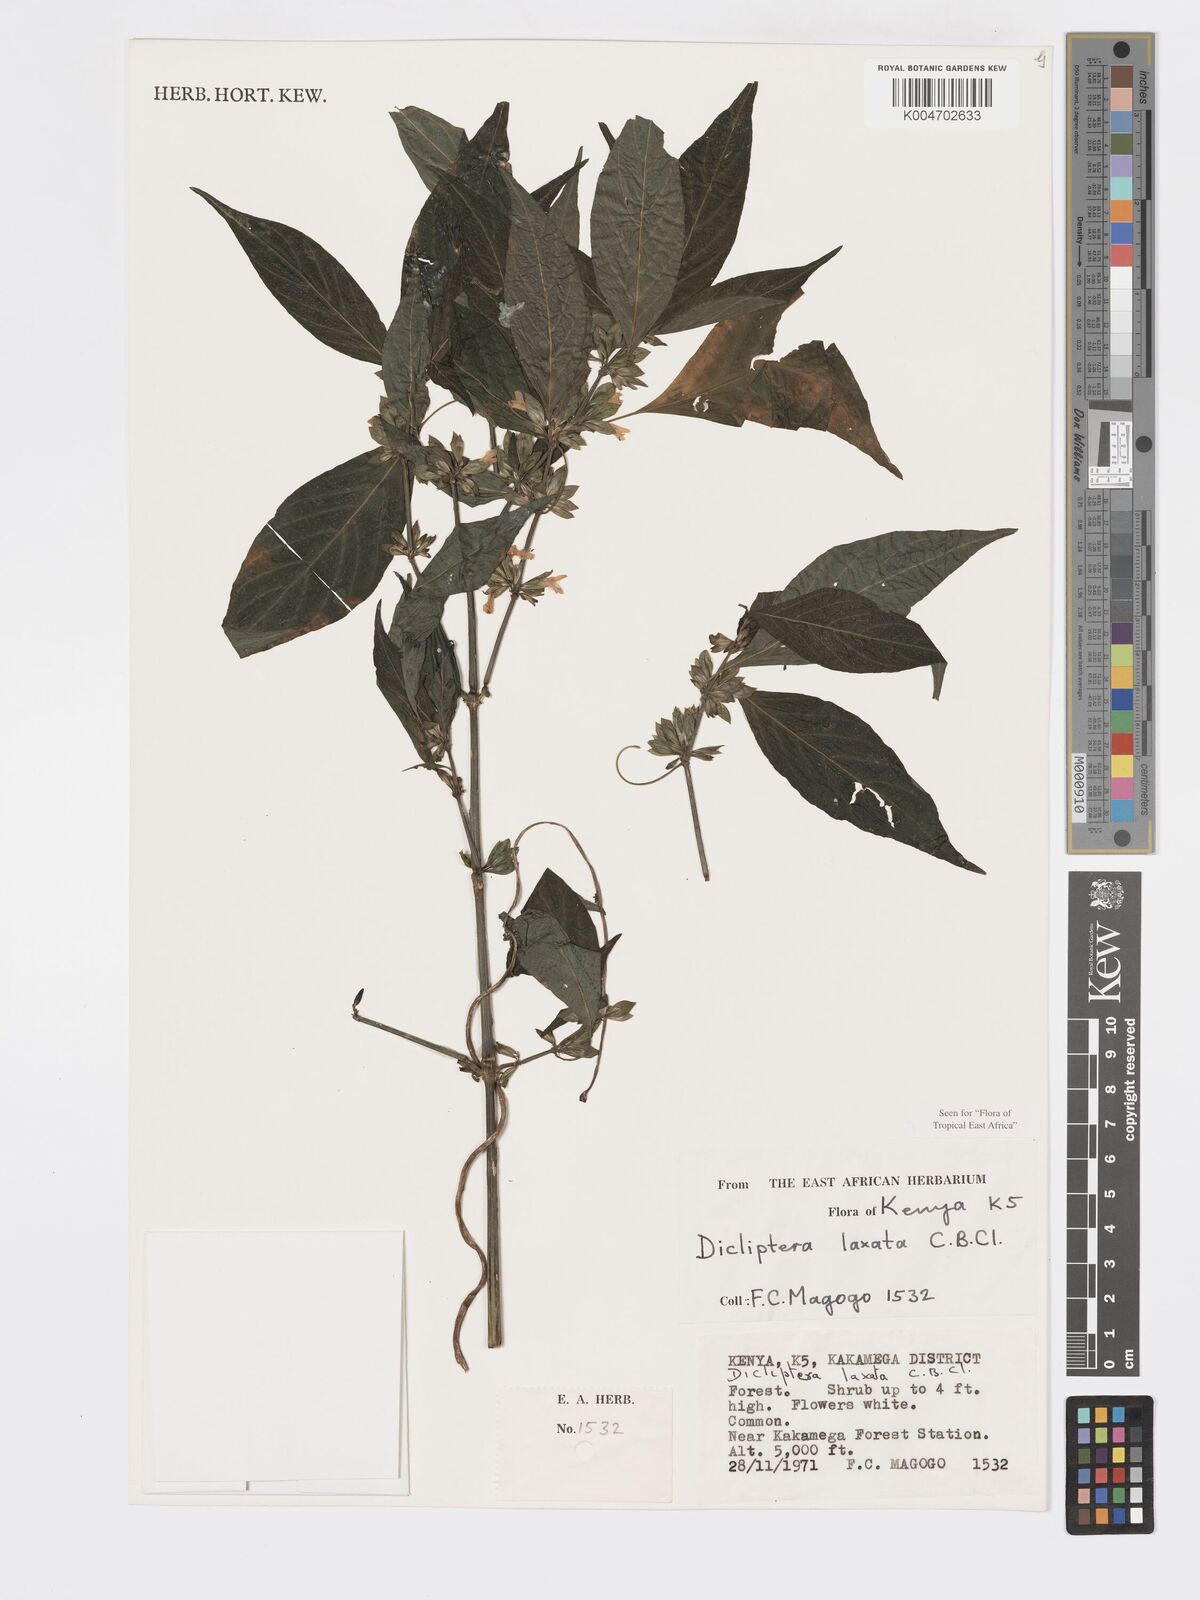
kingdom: Plantae
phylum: Tracheophyta
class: Magnoliopsida
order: Lamiales
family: Acanthaceae
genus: Dicliptera
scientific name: Dicliptera laxata
